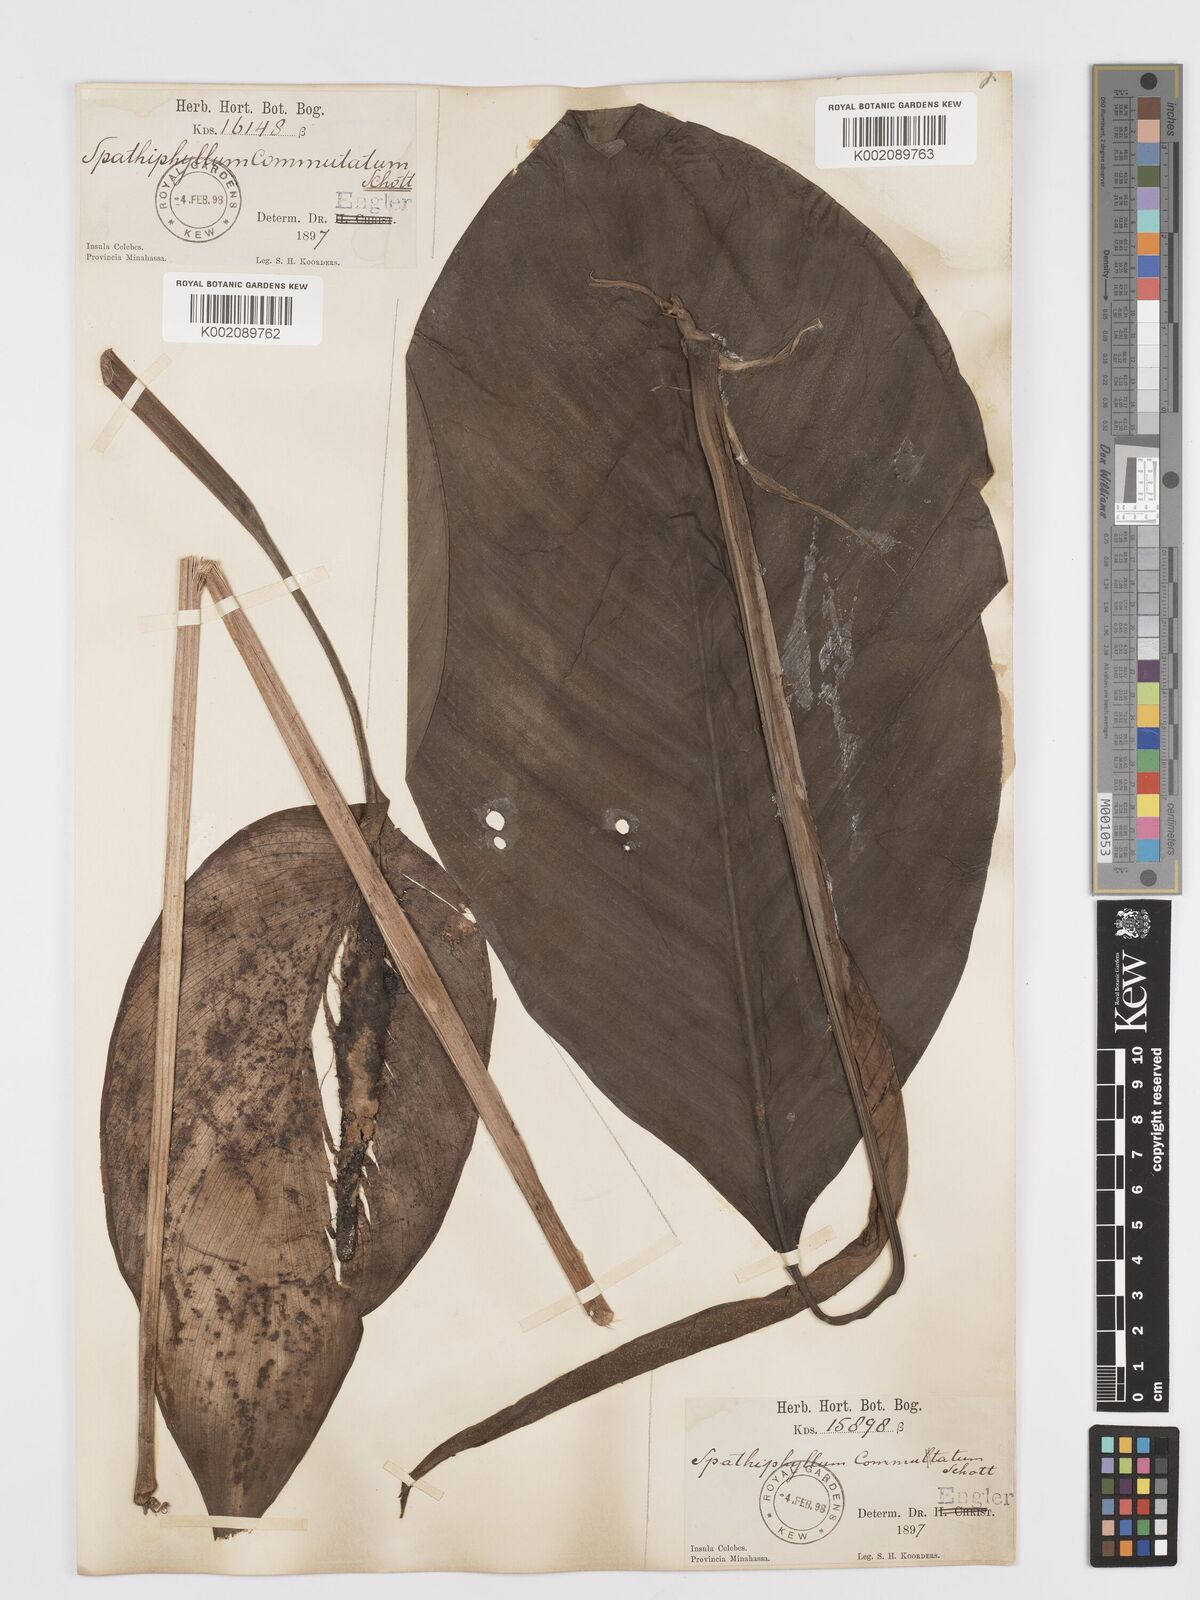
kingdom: Plantae
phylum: Tracheophyta
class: Liliopsida
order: Alismatales
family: Araceae
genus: Spathiphyllum
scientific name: Spathiphyllum commutatum
